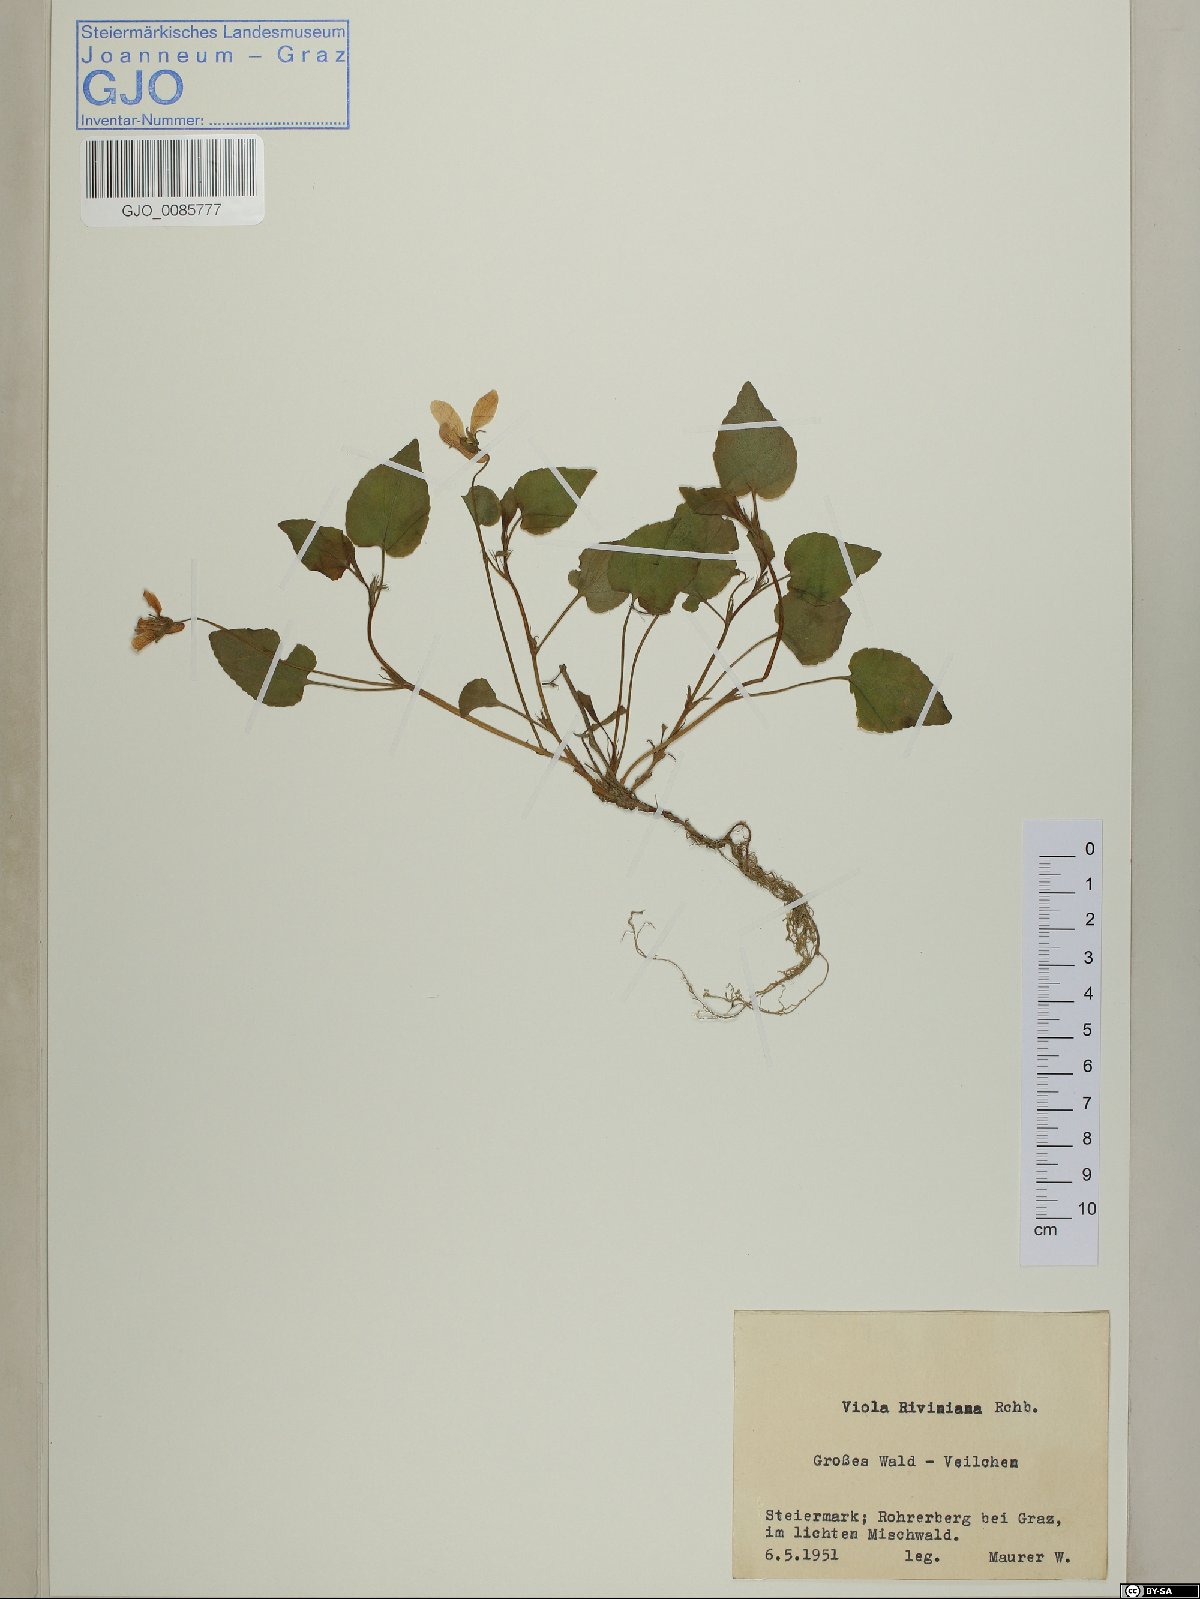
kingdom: Plantae
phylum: Tracheophyta
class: Magnoliopsida
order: Malpighiales
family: Violaceae
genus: Viola
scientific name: Viola bavarica
